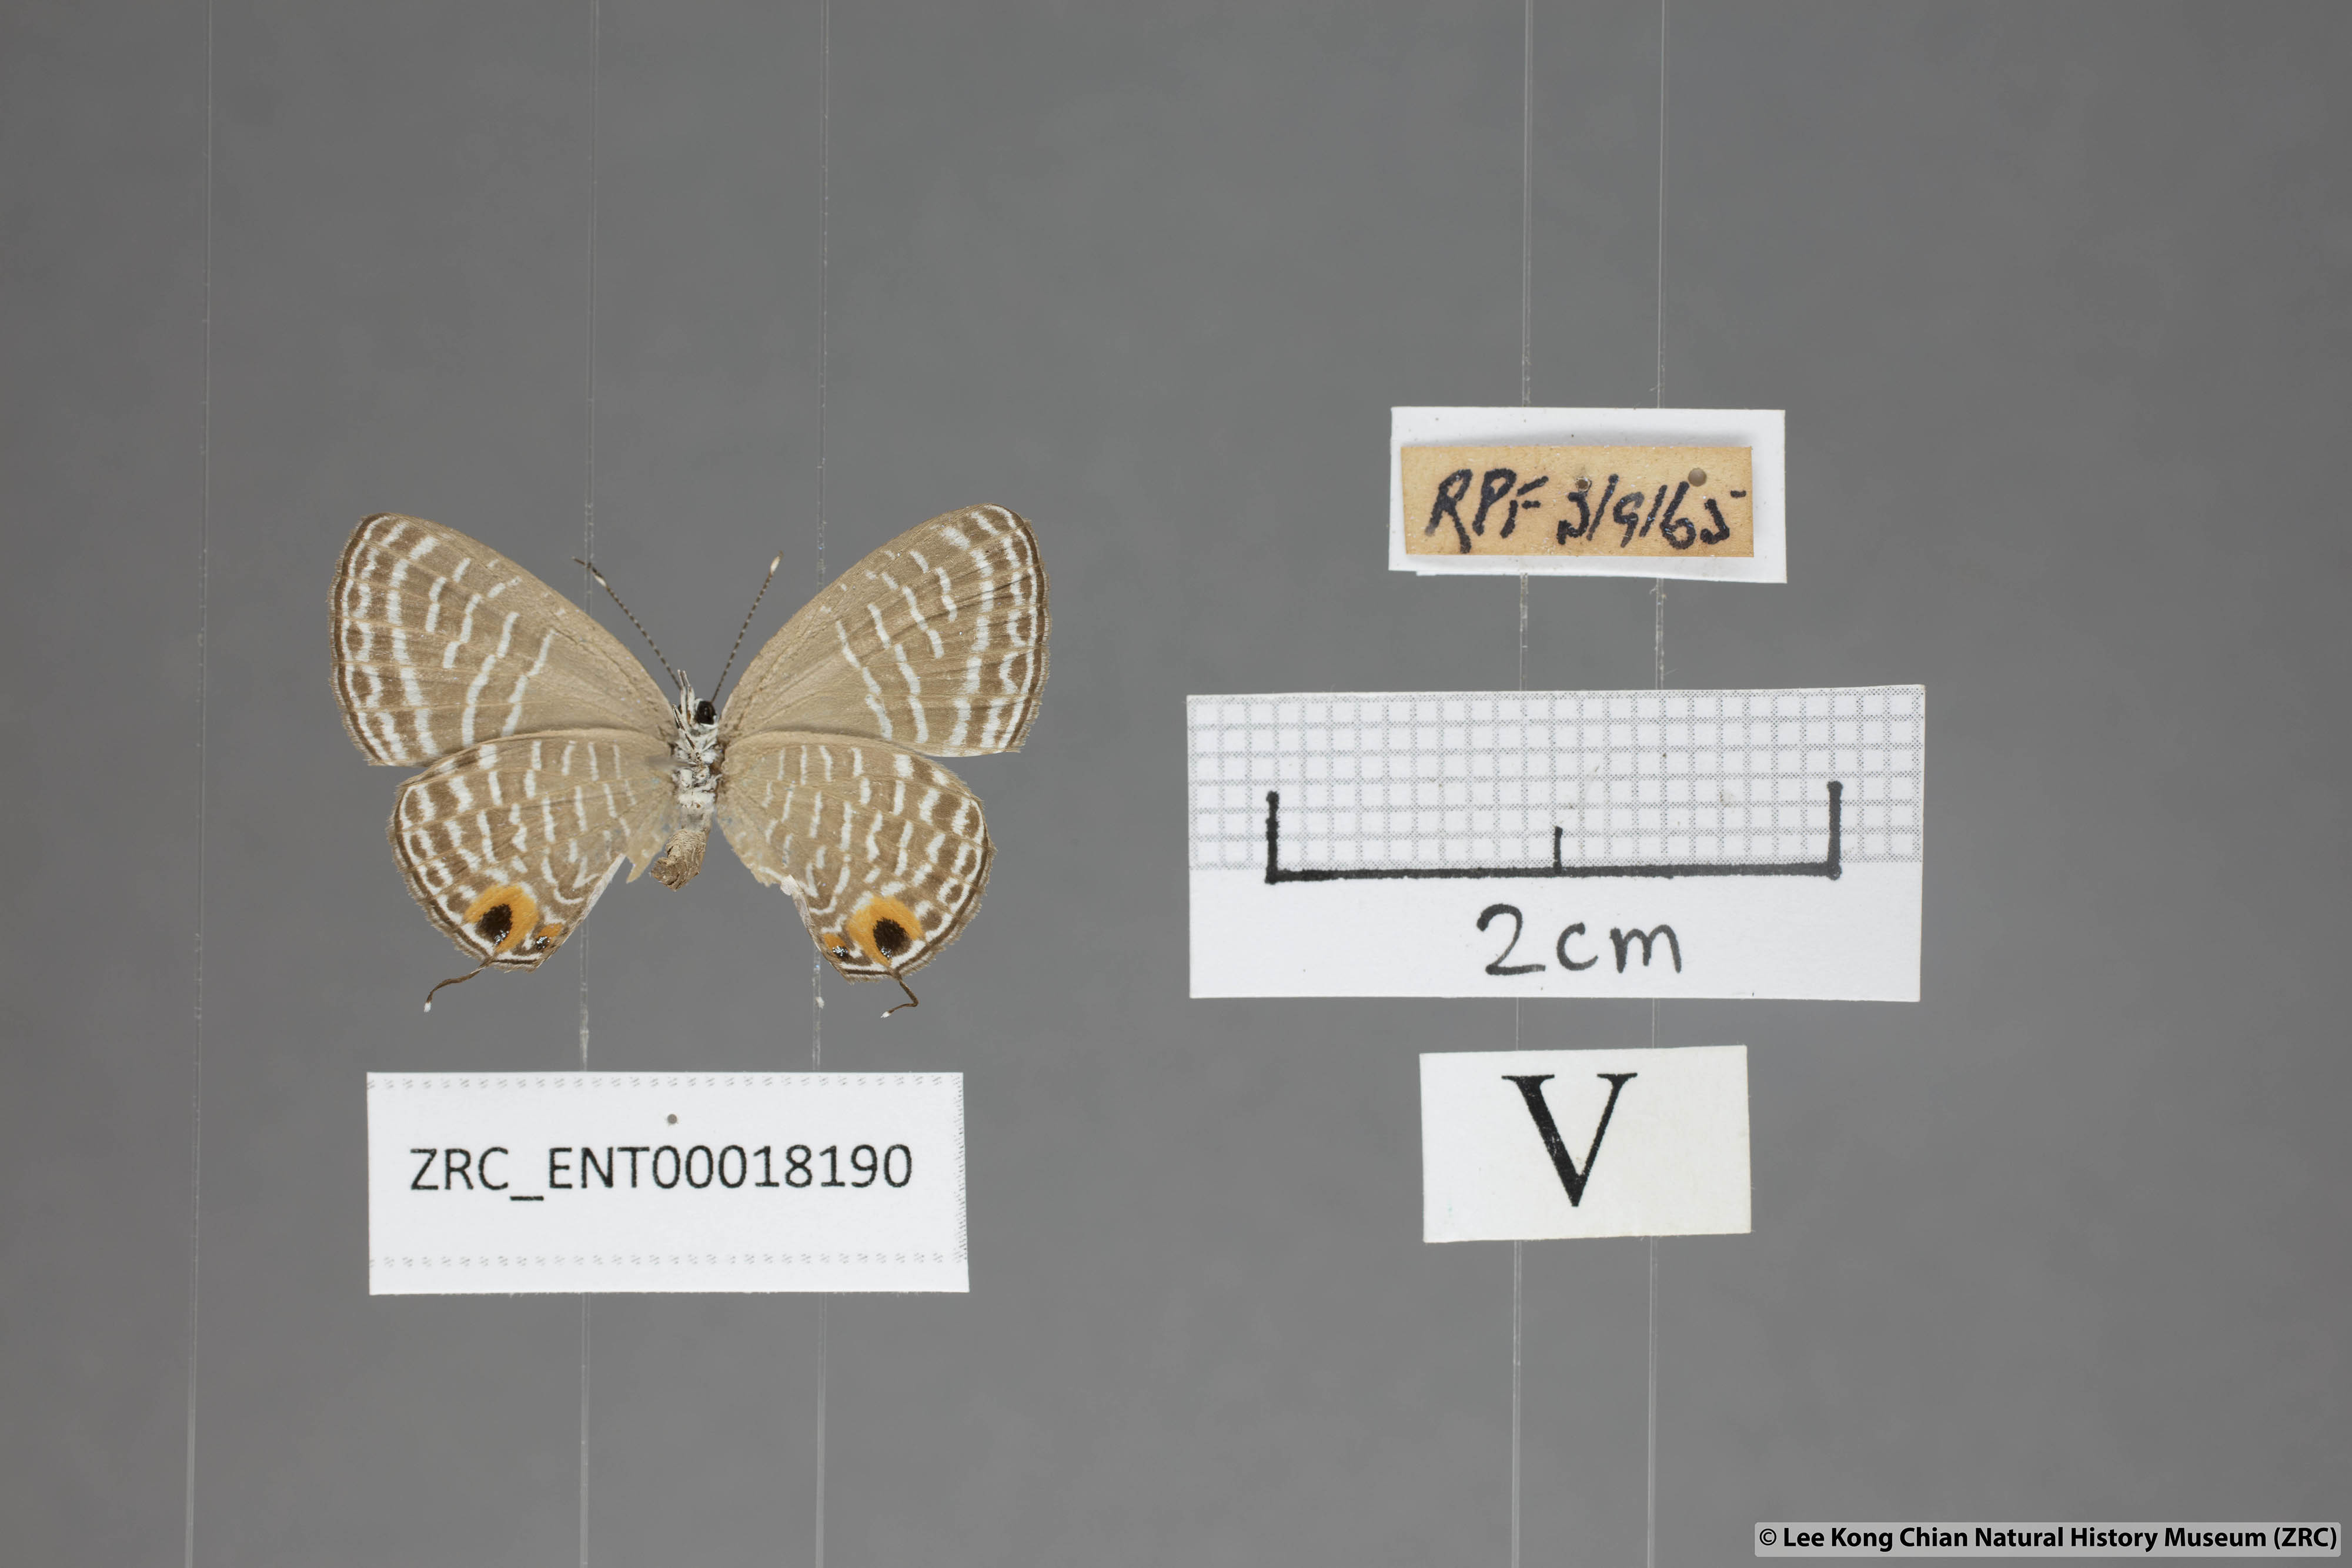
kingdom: Animalia
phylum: Arthropoda
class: Insecta
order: Lepidoptera
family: Lycaenidae
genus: Jamides
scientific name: Jamides talinga
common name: Lesser cerulean
